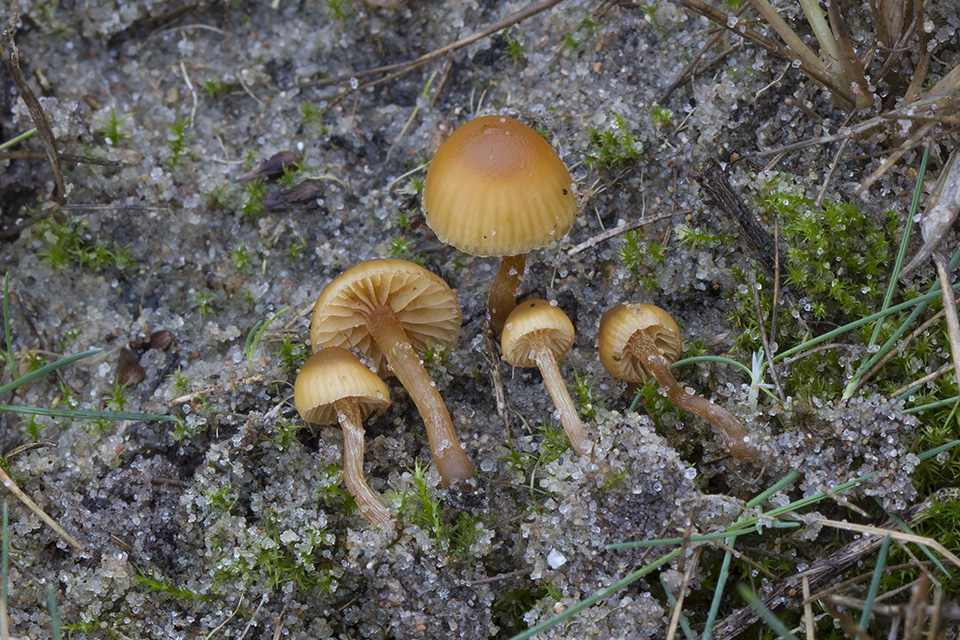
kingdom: Fungi
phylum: Basidiomycota
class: Agaricomycetes
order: Agaricales
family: Hymenogastraceae
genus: Galerina
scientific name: Galerina marginata
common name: randbæltet hjelmhat
